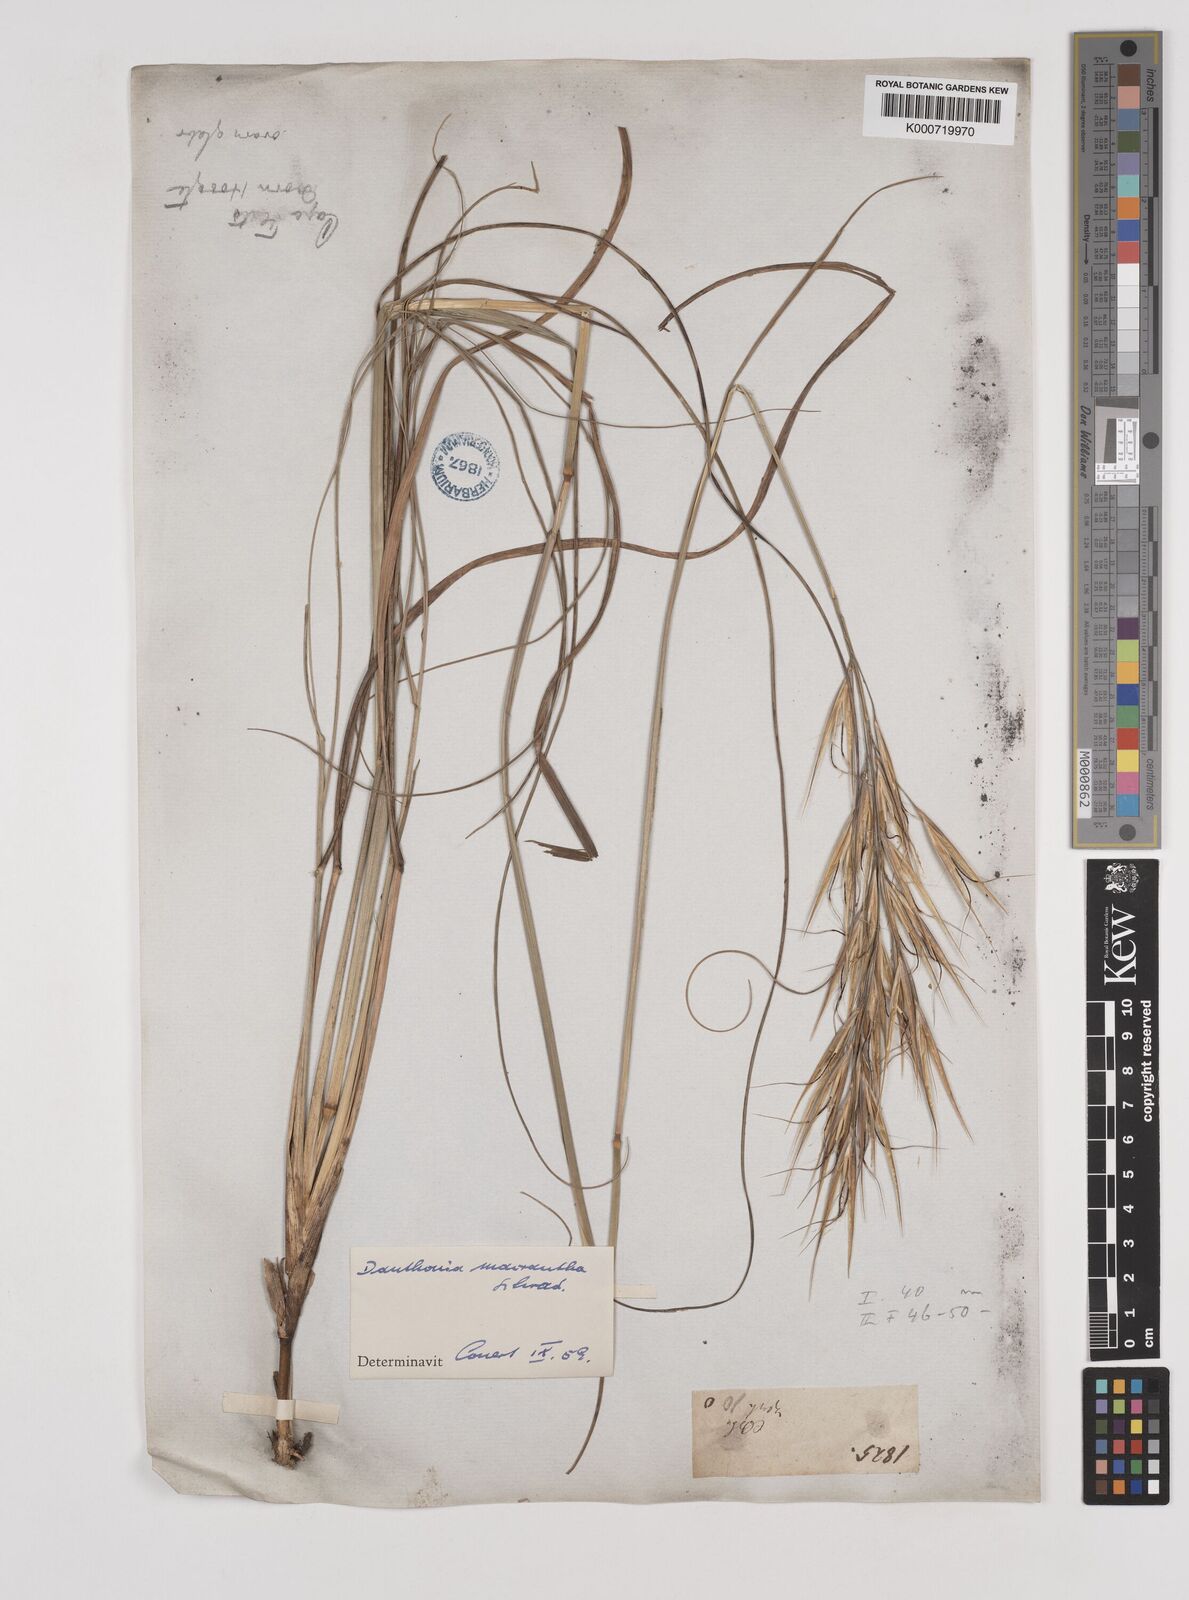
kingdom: Plantae
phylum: Tracheophyta
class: Liliopsida
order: Poales
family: Poaceae
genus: Pseudopentameris
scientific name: Pseudopentameris macrantha
